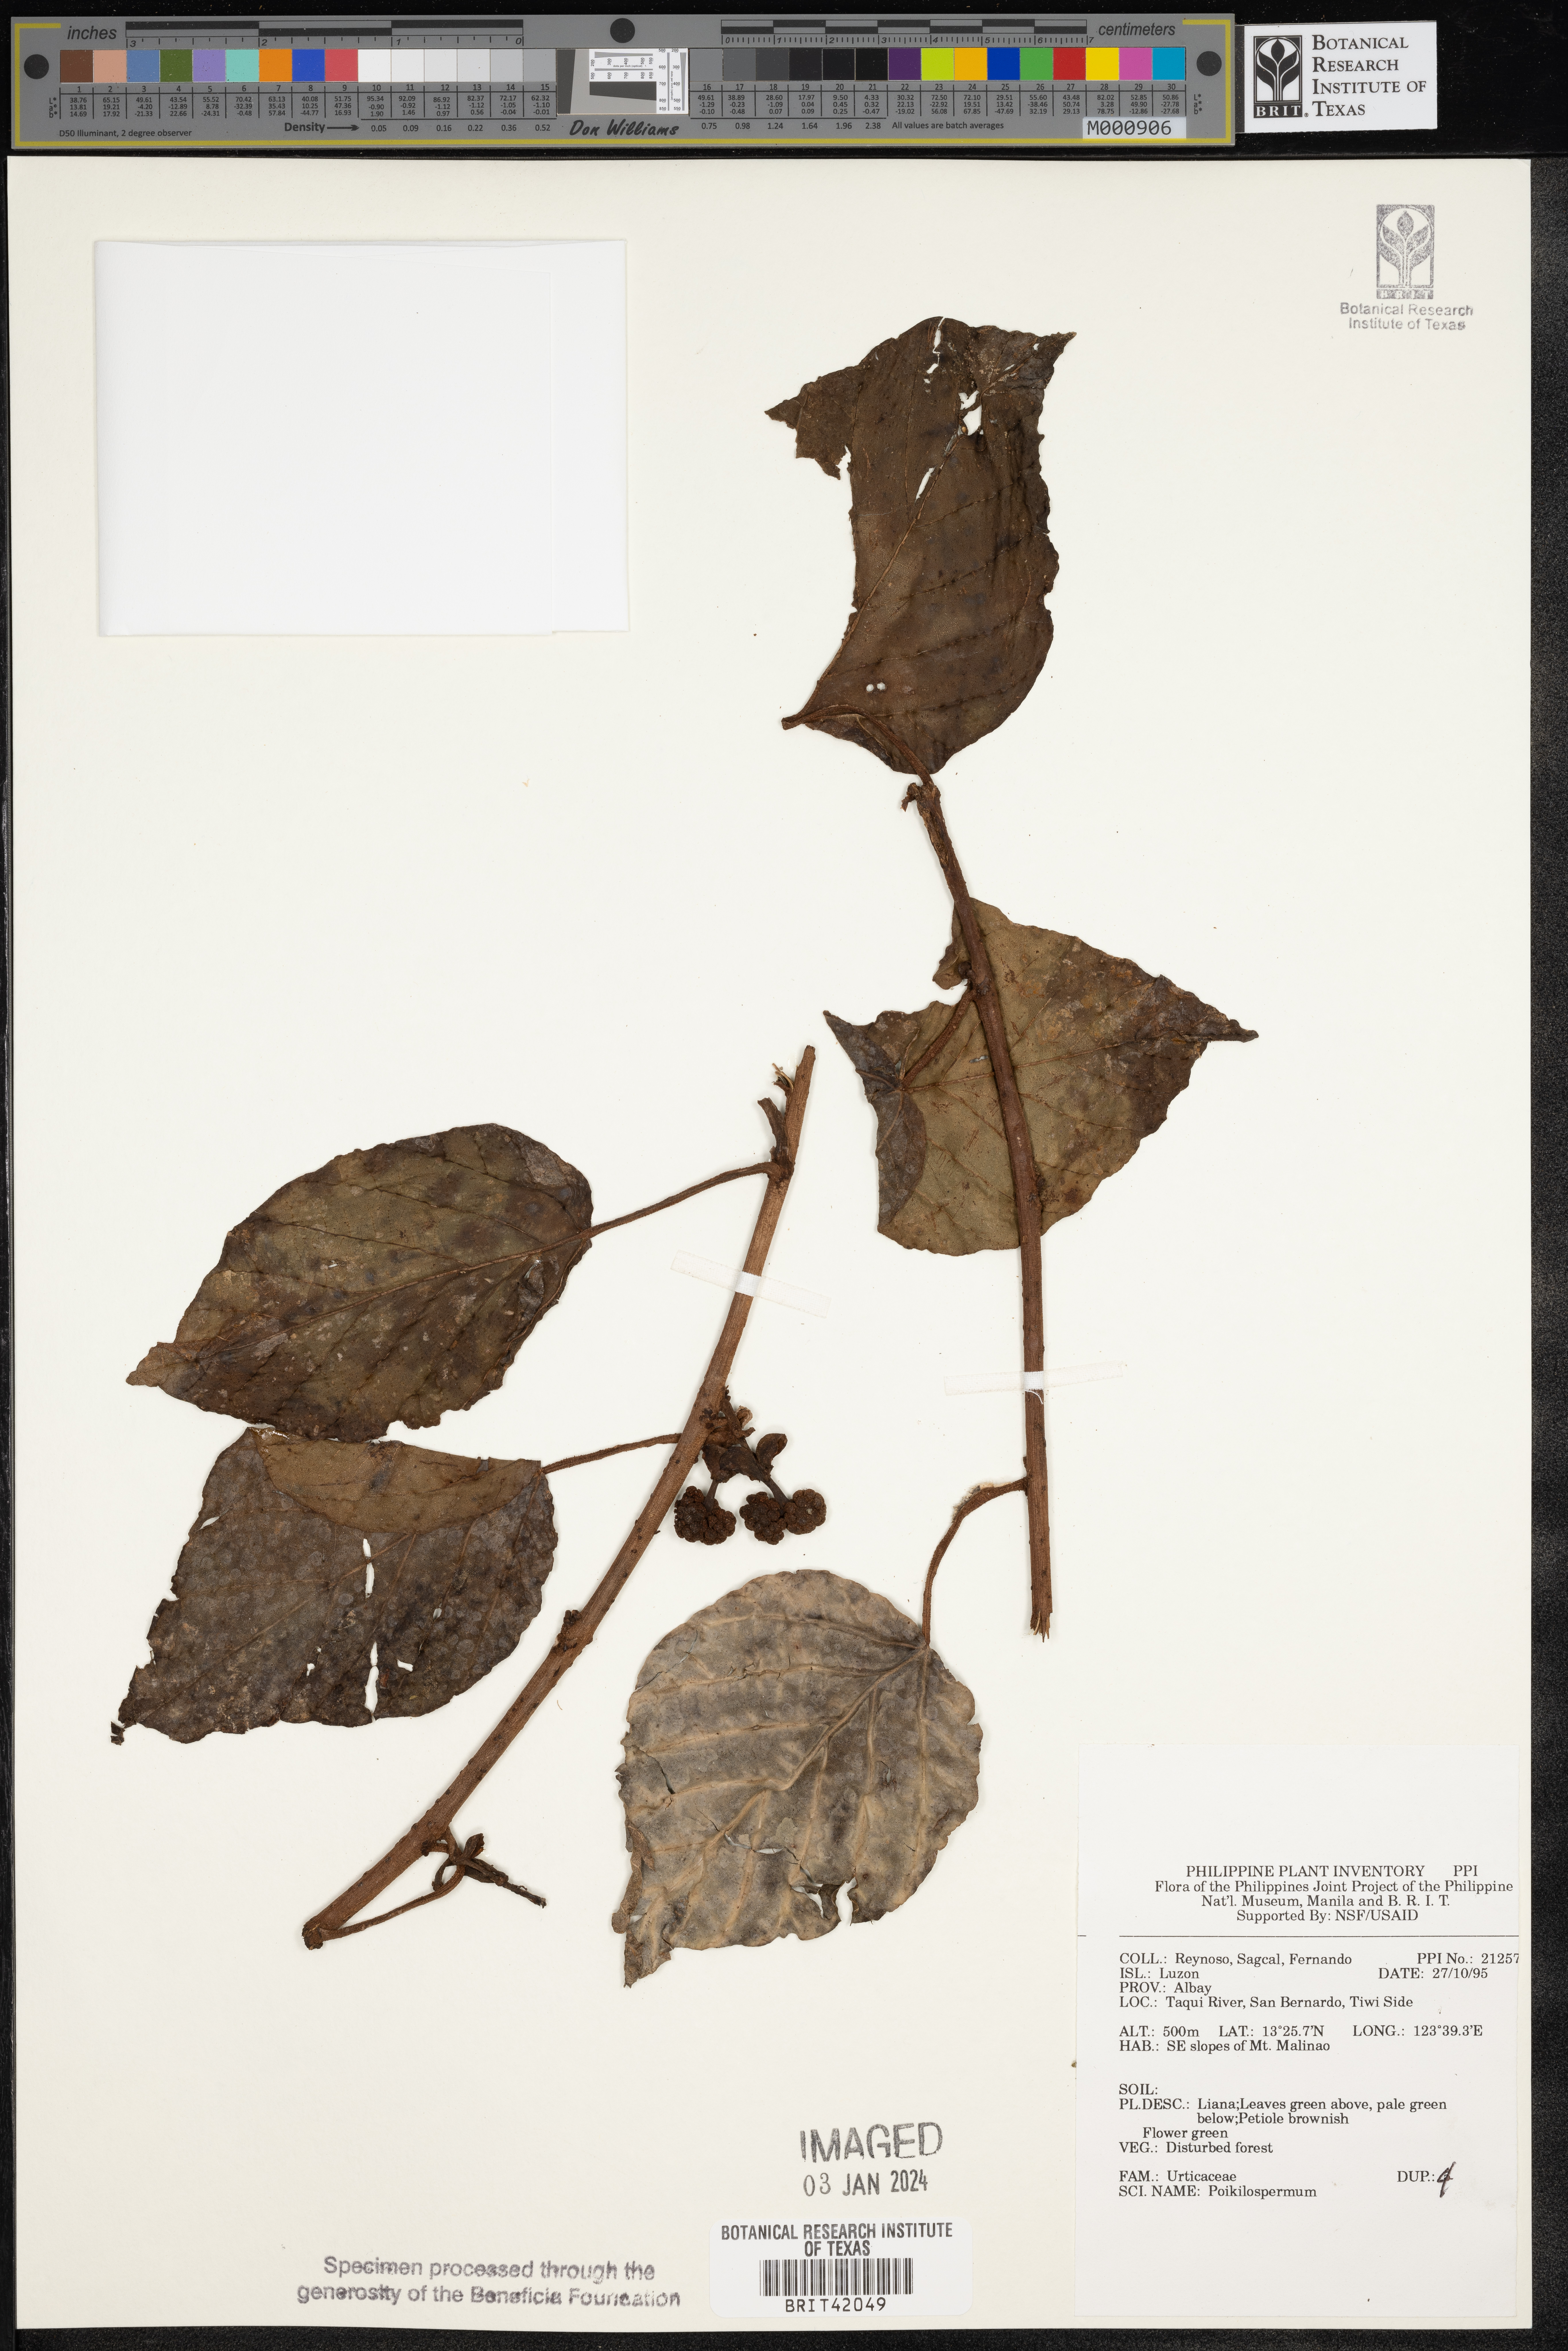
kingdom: Plantae
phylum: Tracheophyta
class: Magnoliopsida
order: Rosales
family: Urticaceae
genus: Poikilospermum
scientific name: Poikilospermum
